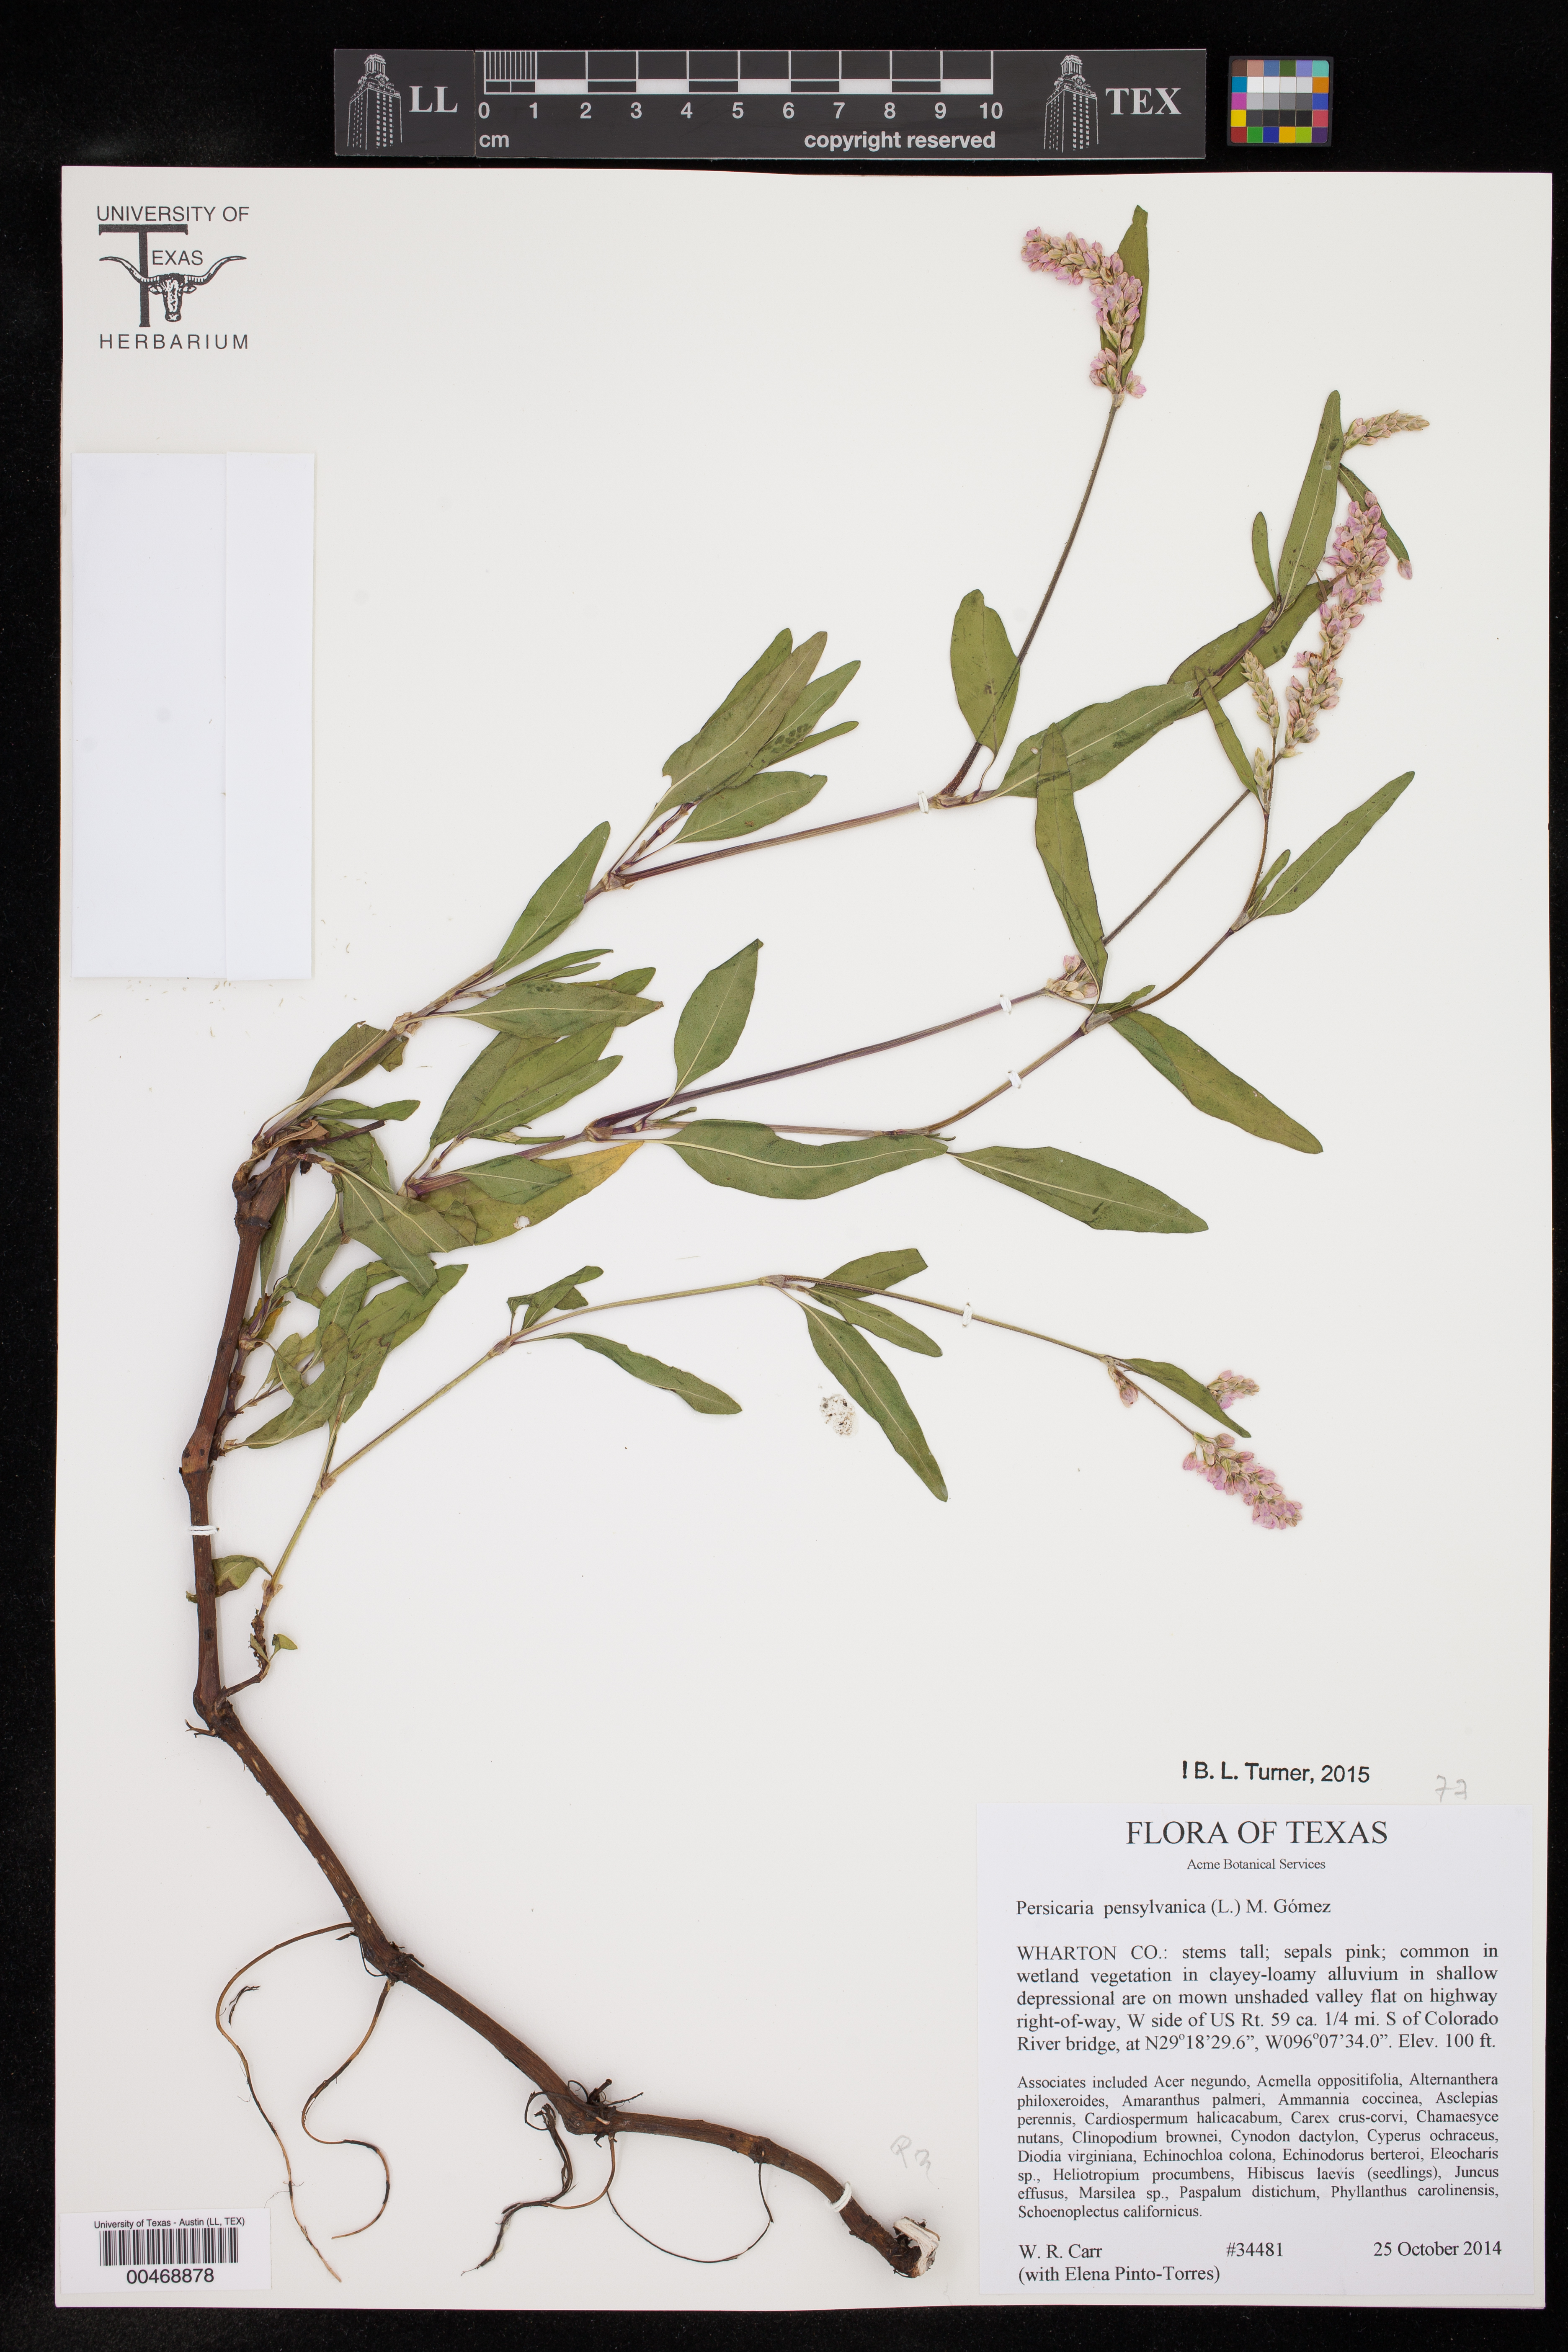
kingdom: Plantae
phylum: Tracheophyta
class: Magnoliopsida
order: Caryophyllales
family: Polygonaceae
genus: Persicaria
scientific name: Persicaria pensylvanica
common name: Pinkweed
